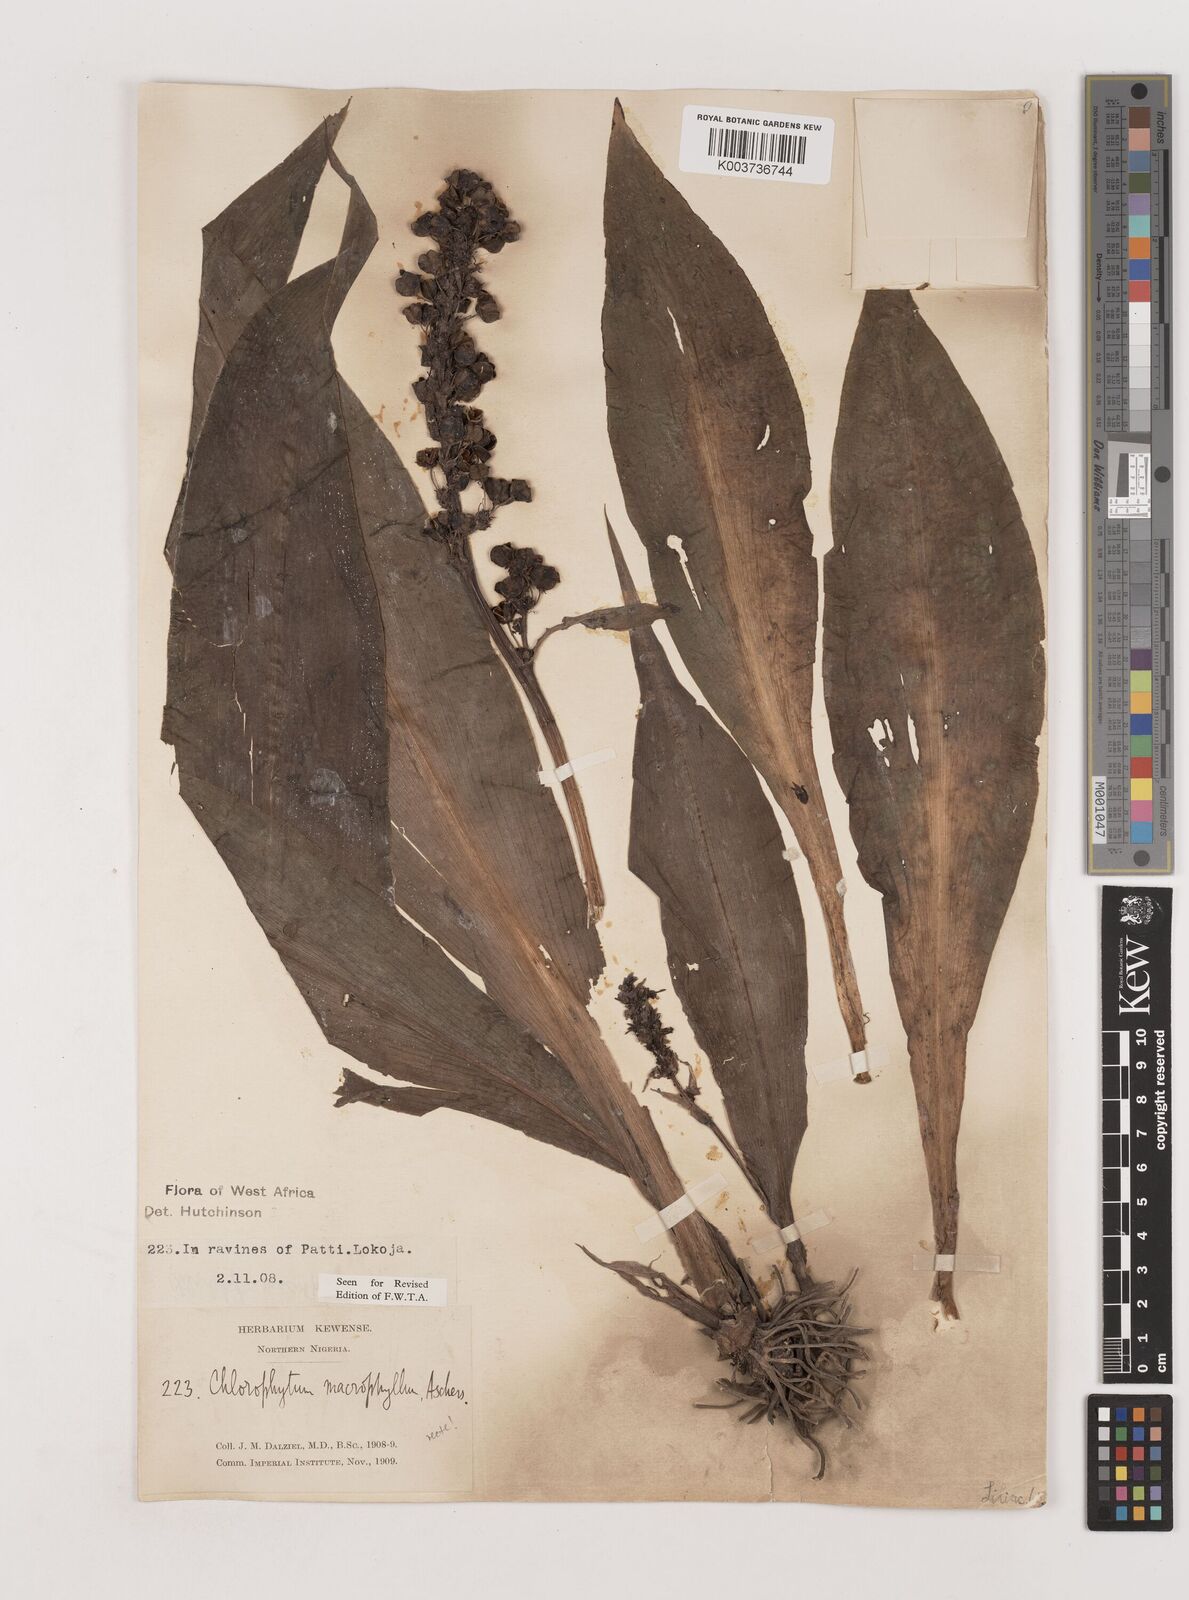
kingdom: Plantae
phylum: Tracheophyta
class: Liliopsida
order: Asparagales
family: Asparagaceae
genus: Chlorophytum
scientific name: Chlorophytum macrophyllum
